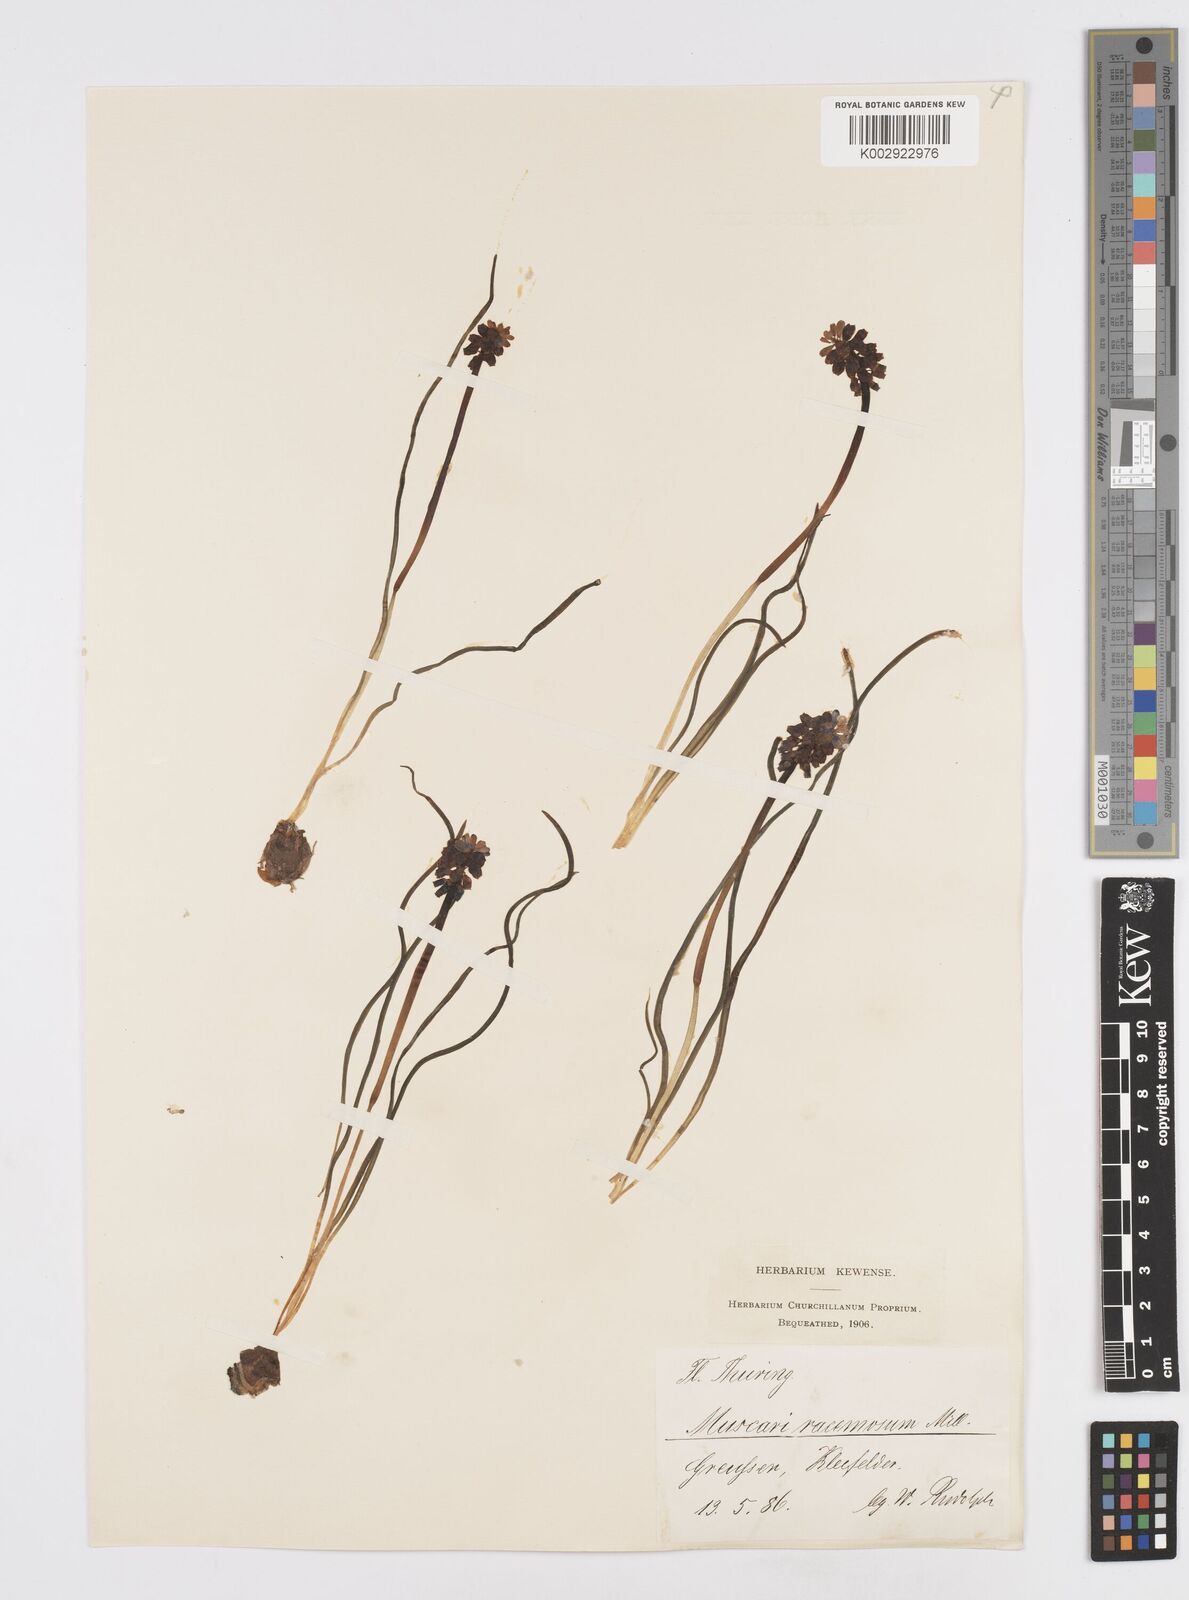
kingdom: Plantae
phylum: Tracheophyta
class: Liliopsida
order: Asparagales
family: Asparagaceae
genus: Muscarimia
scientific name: Muscarimia muscari
